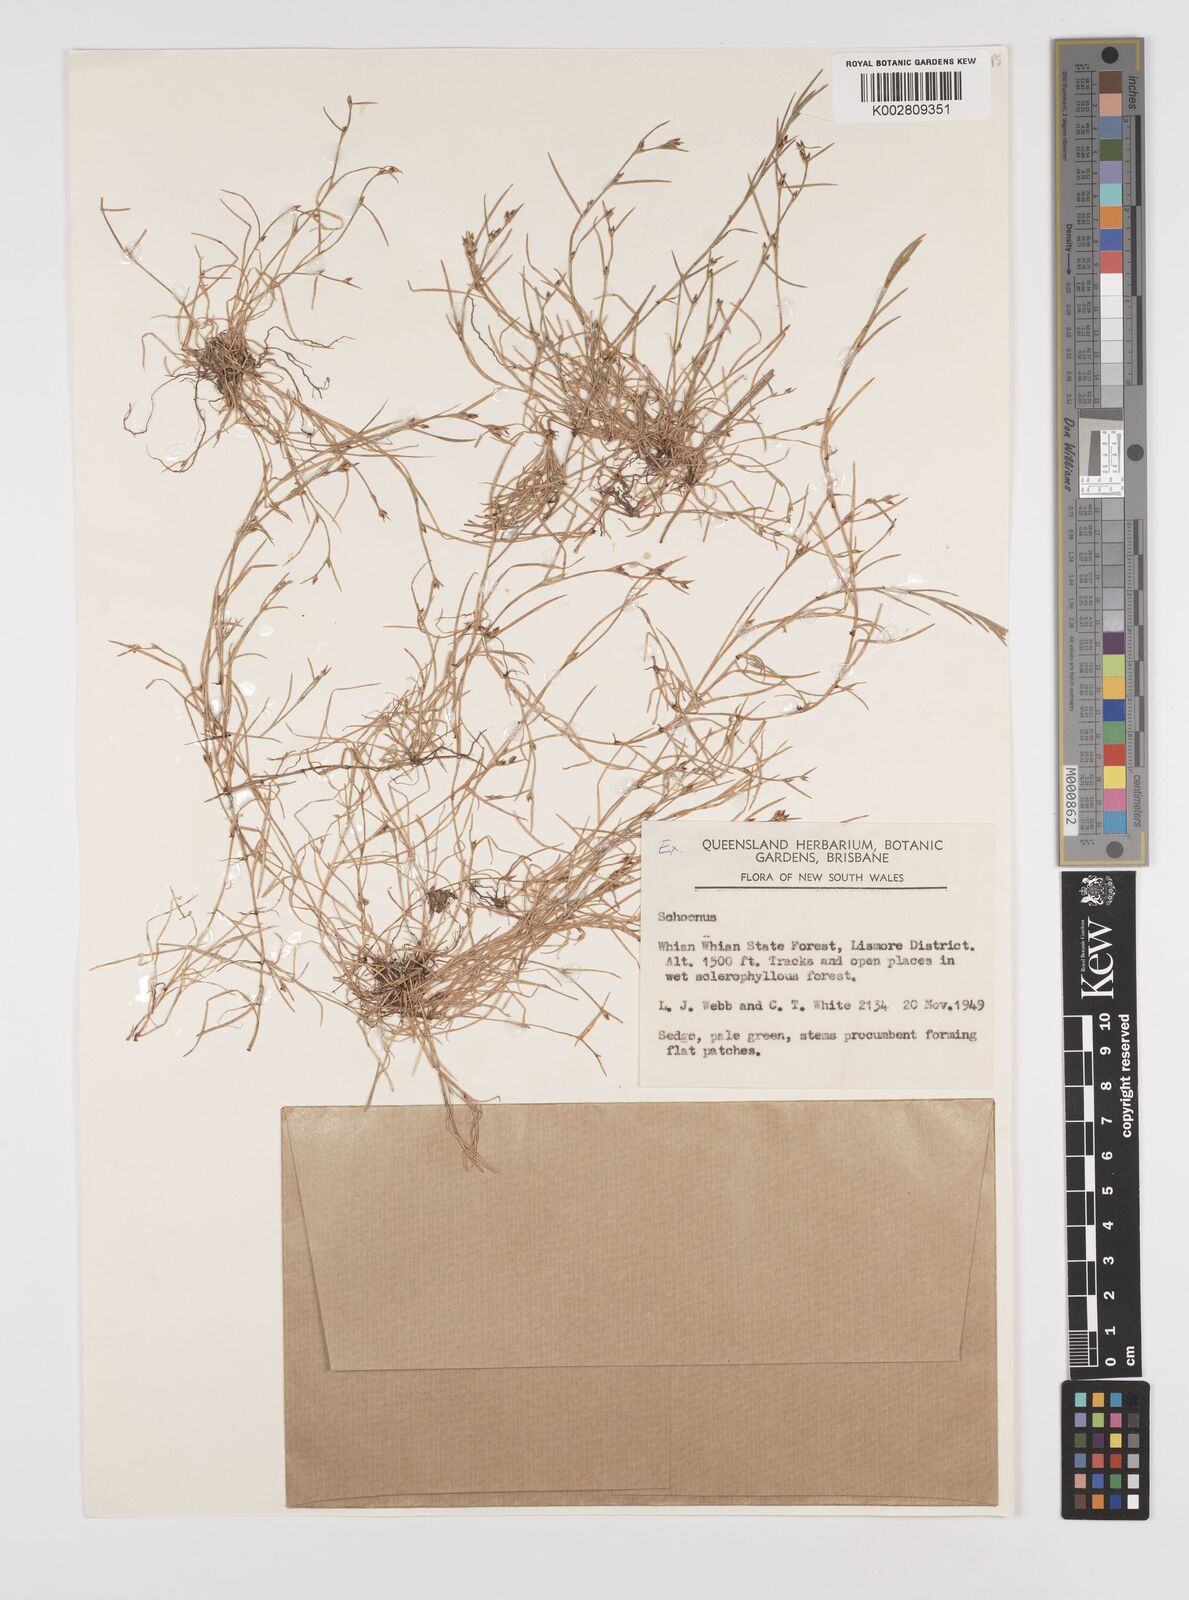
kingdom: Plantae
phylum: Tracheophyta
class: Liliopsida
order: Poales
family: Cyperaceae
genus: Schoenus
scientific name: Schoenus maschalinus
